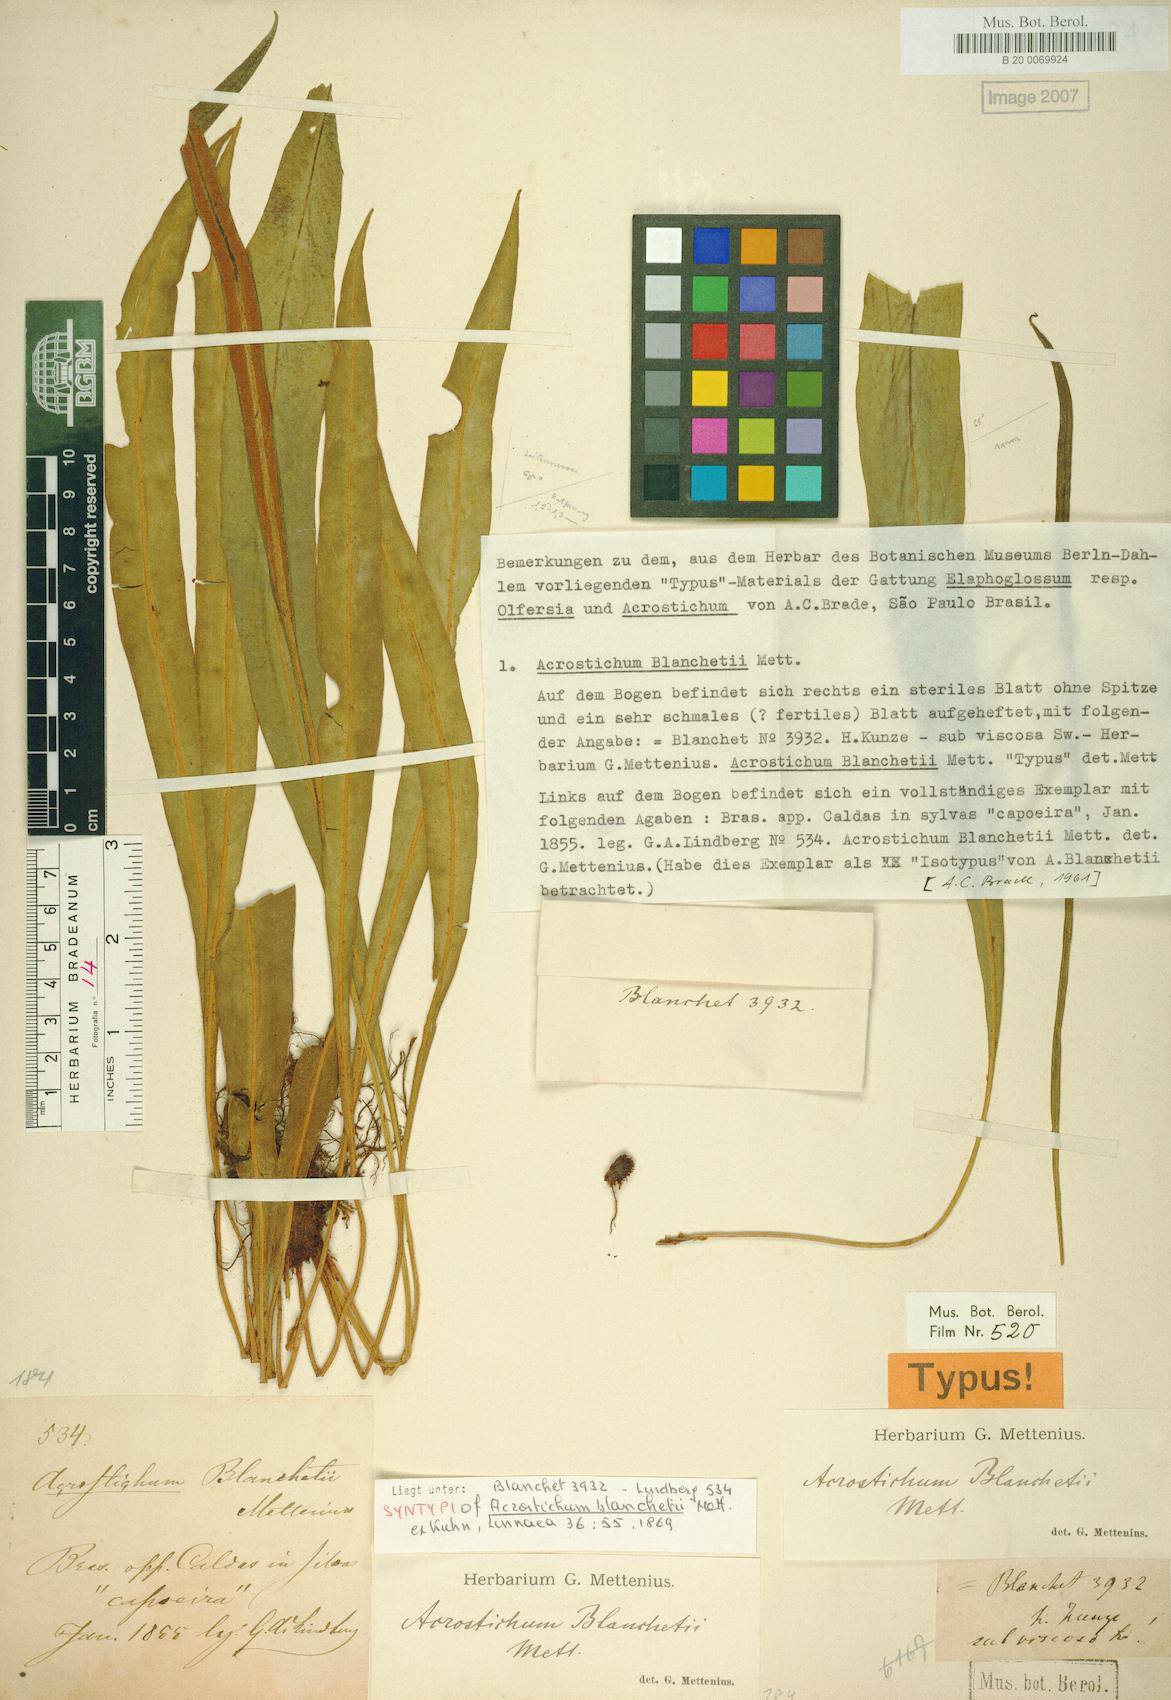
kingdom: Plantae
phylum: Tracheophyta
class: Polypodiopsida
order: Polypodiales
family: Dryopteridaceae
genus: Elaphoglossum
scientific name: Elaphoglossum blanchetii
